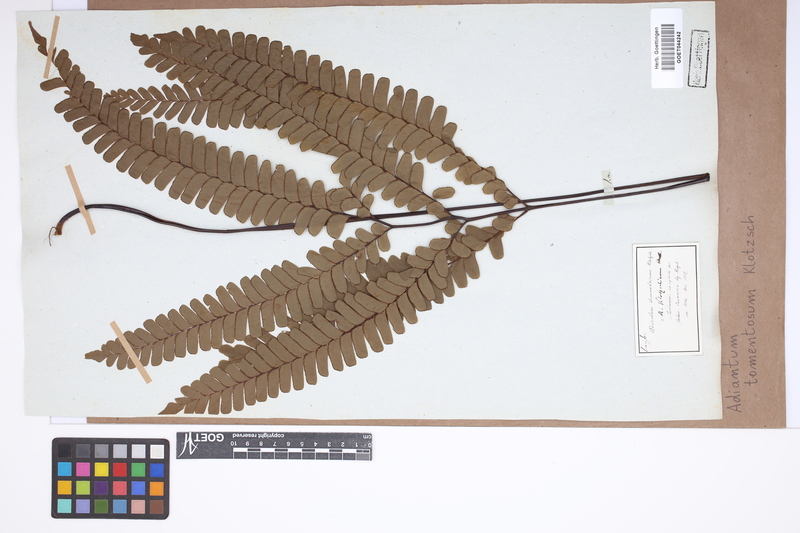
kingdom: Plantae
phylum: Tracheophyta
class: Polypodiopsida
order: Polypodiales
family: Pteridaceae
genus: Adiantum
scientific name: Adiantum tomentosum
